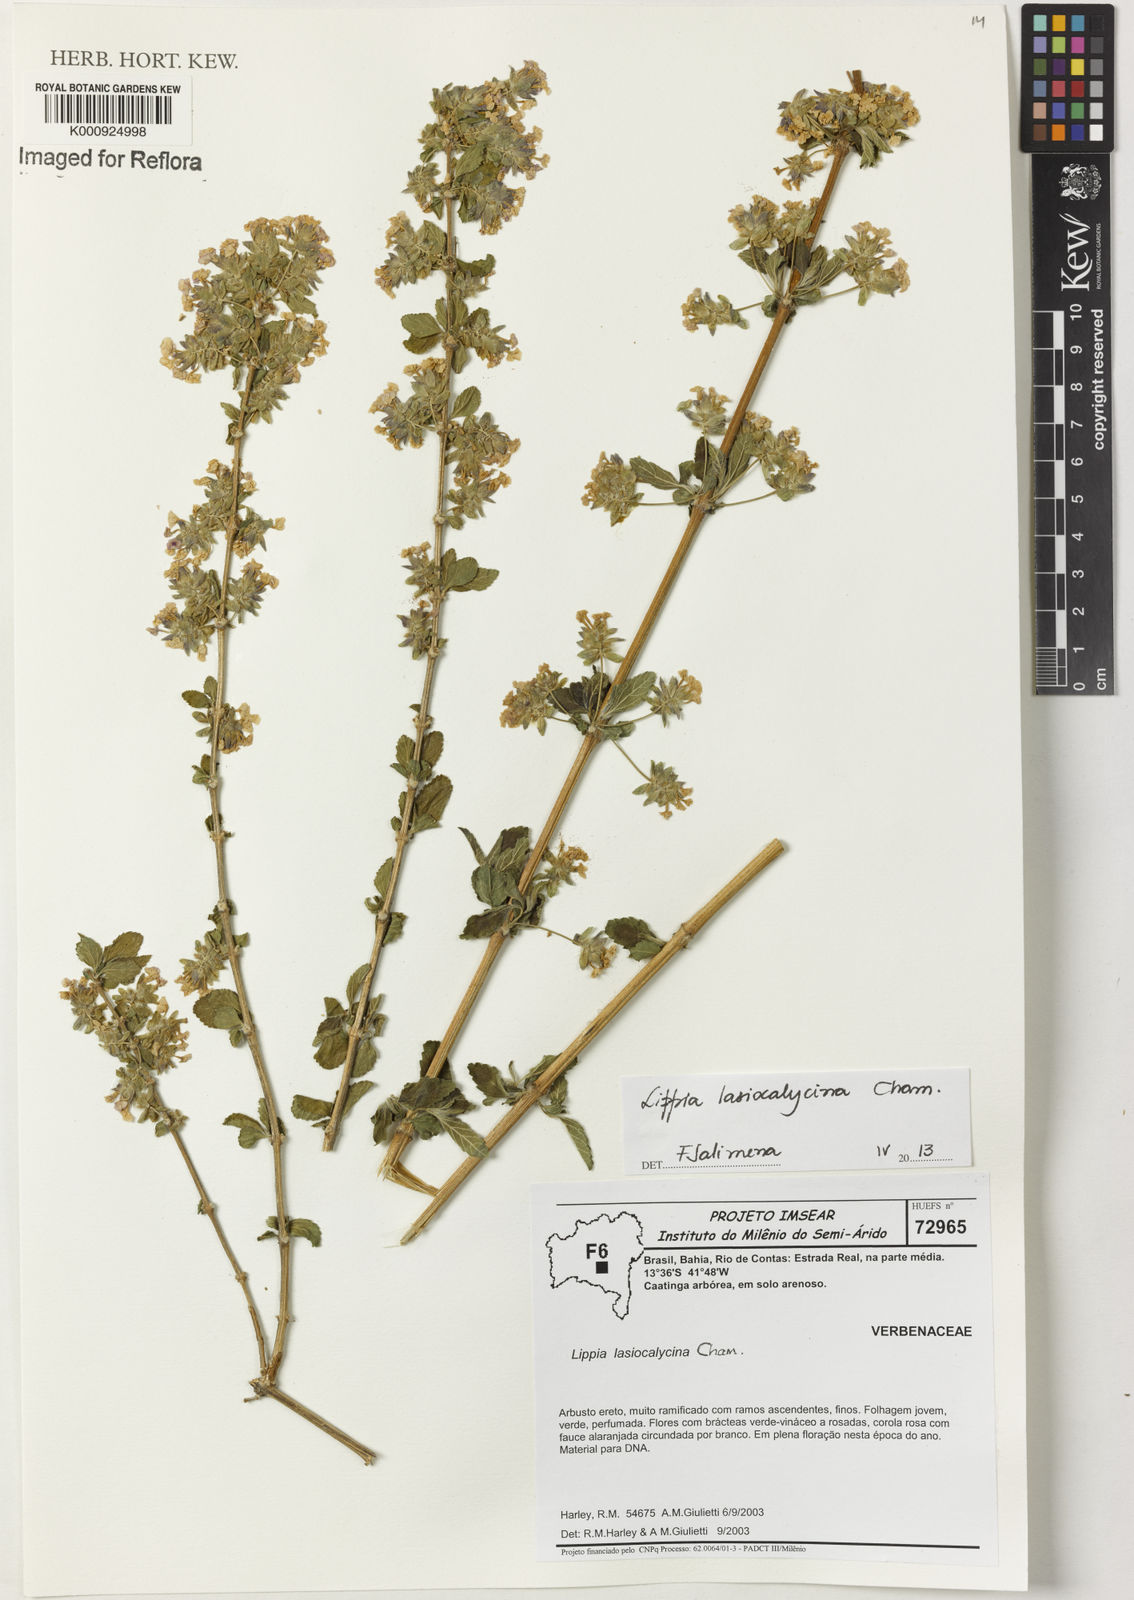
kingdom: Plantae
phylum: Tracheophyta
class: Magnoliopsida
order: Lamiales
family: Verbenaceae
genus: Lippia
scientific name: Lippia lasiocalycina
